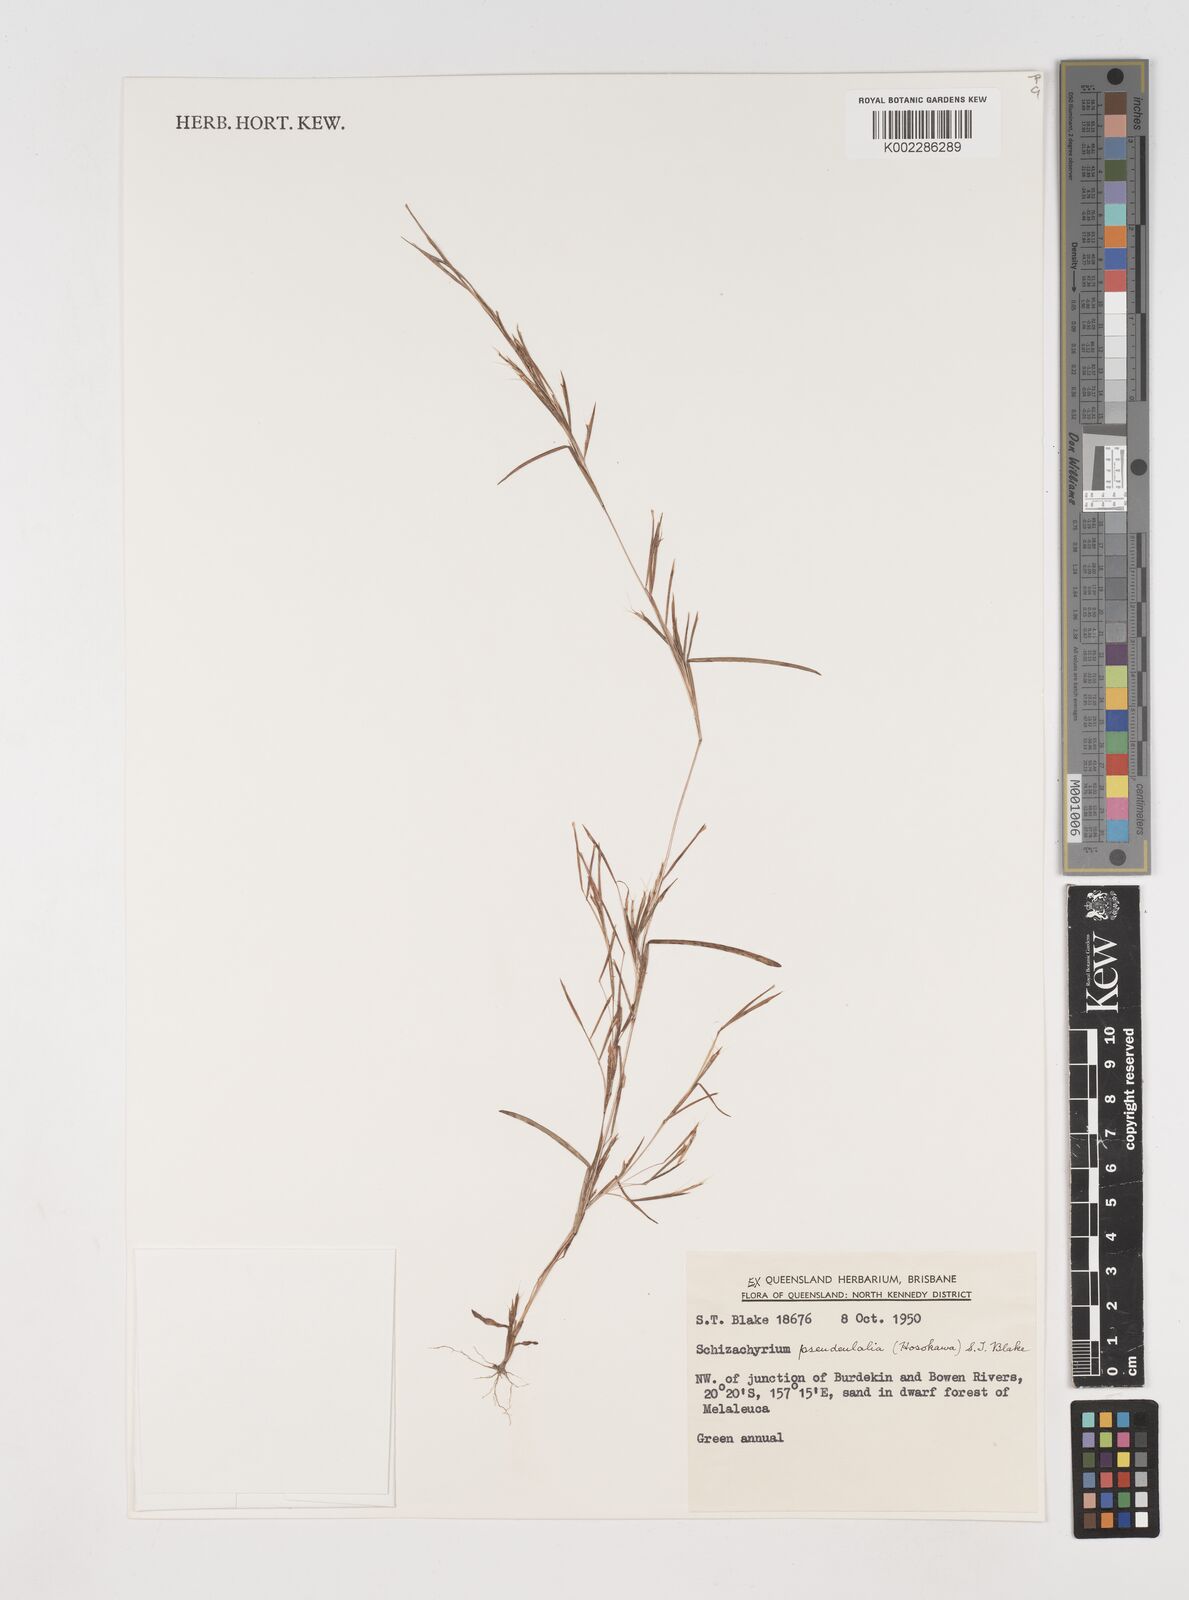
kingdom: Plantae
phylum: Tracheophyta
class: Liliopsida
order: Poales
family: Poaceae
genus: Schizachyrium
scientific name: Schizachyrium pseudeulalia
